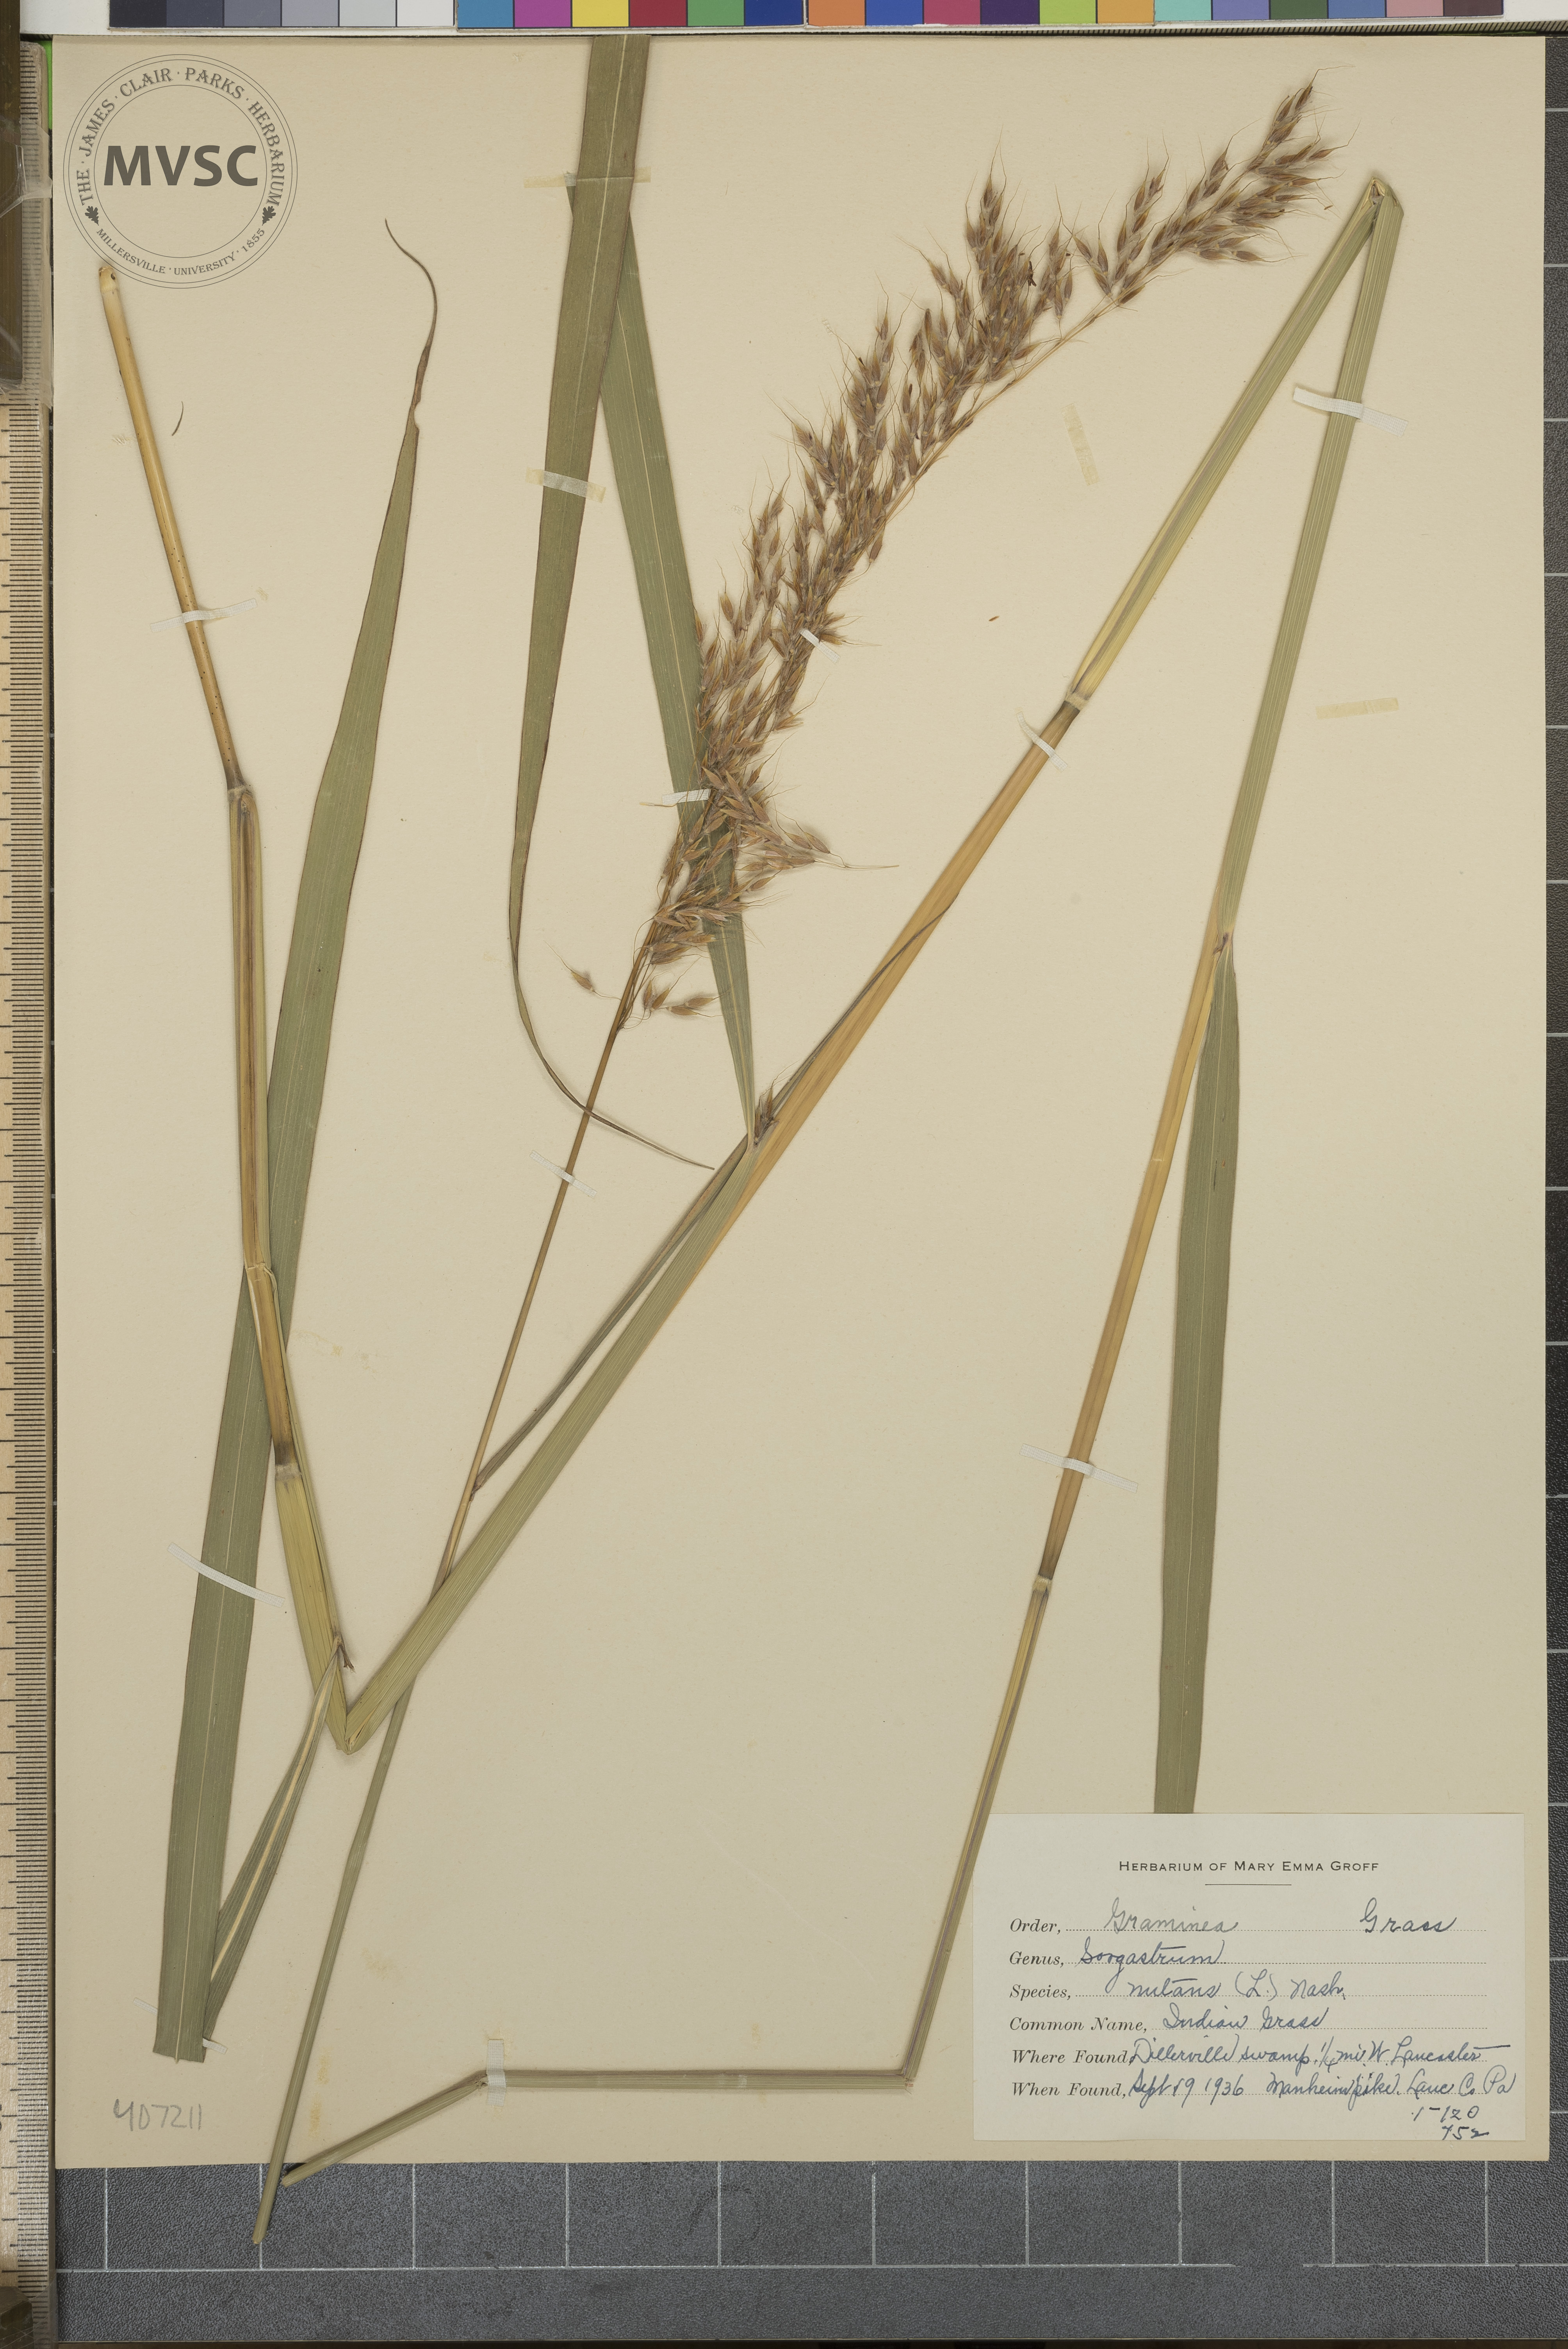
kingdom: Plantae
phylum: Tracheophyta
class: Liliopsida
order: Poales
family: Poaceae
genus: Sorghastrum
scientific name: Sorghastrum nutans
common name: Indian Grass
